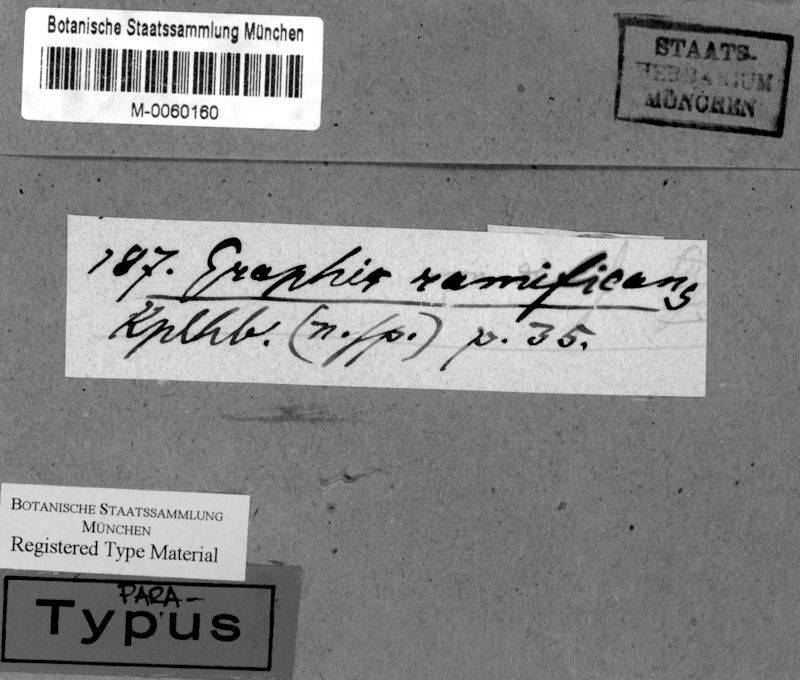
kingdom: Fungi
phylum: Ascomycota
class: Lecanoromycetes
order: Ostropales
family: Graphidaceae
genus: Sarcographa
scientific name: Sarcographa ramificans
